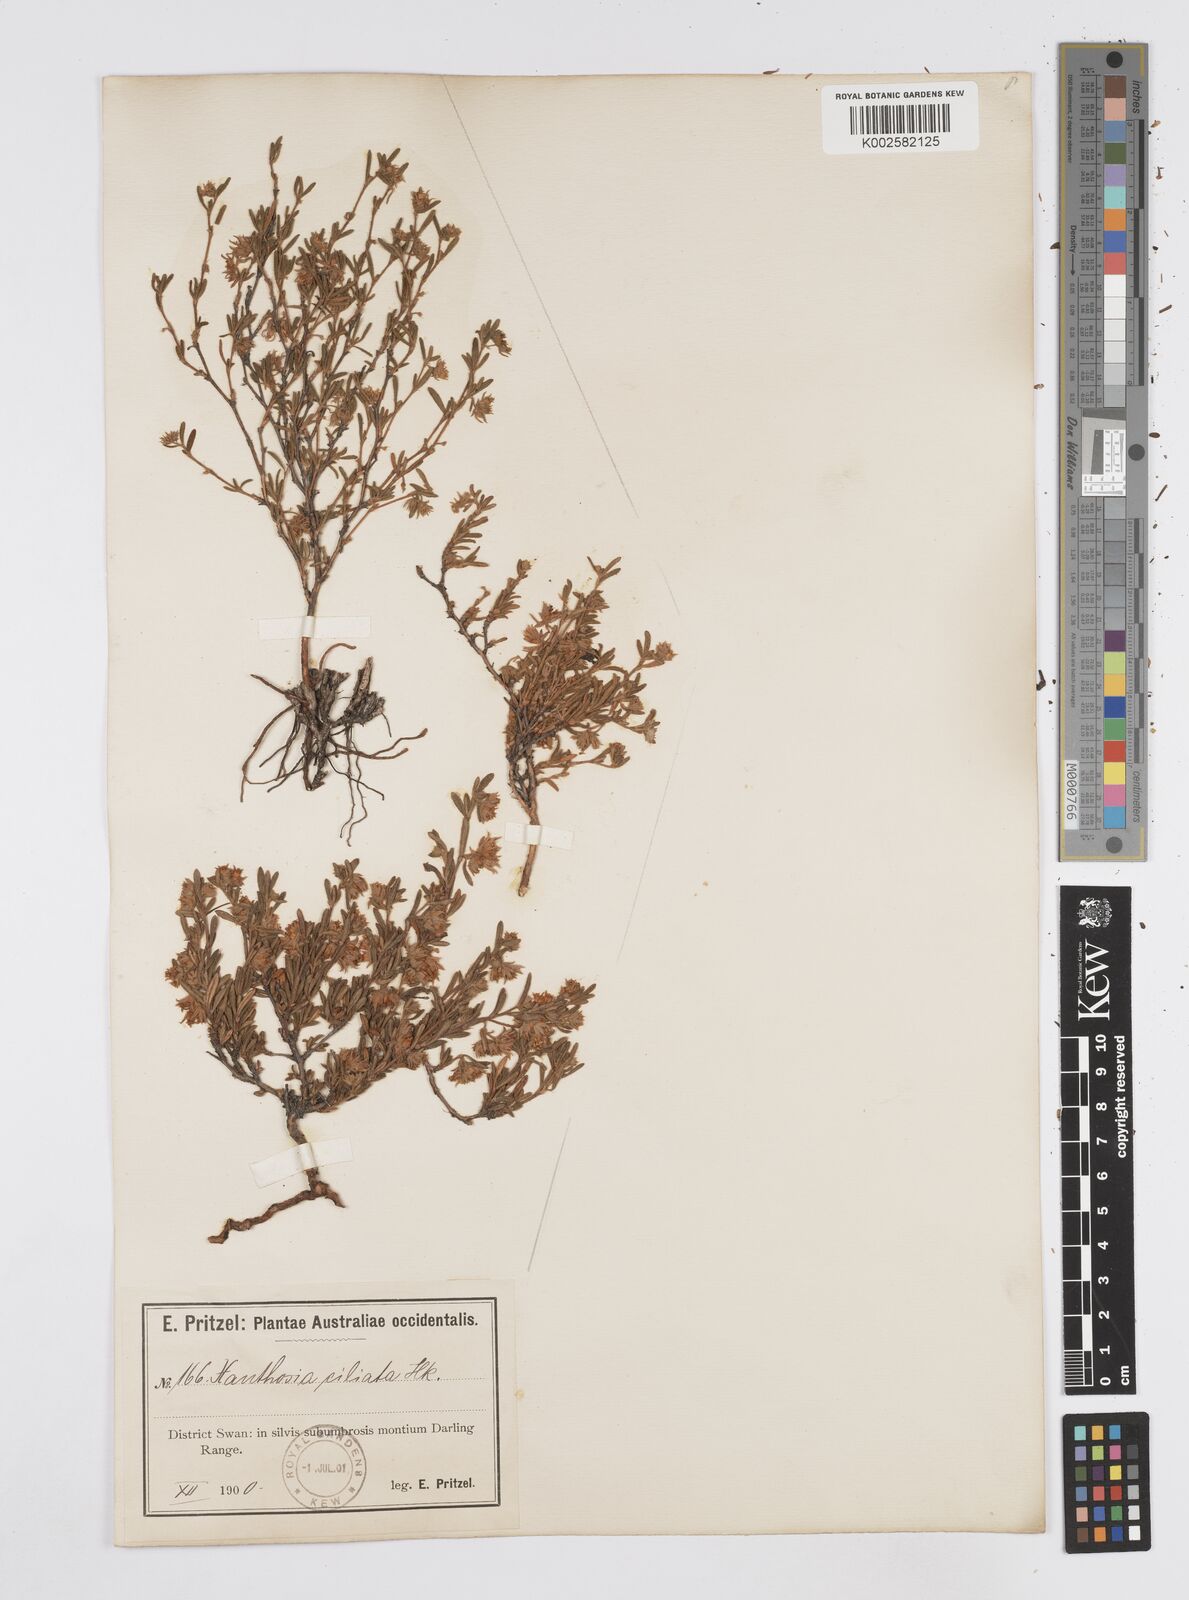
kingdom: Plantae
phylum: Tracheophyta
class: Magnoliopsida
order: Apiales
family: Apiaceae
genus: Xanthosia
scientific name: Xanthosia ciliata
